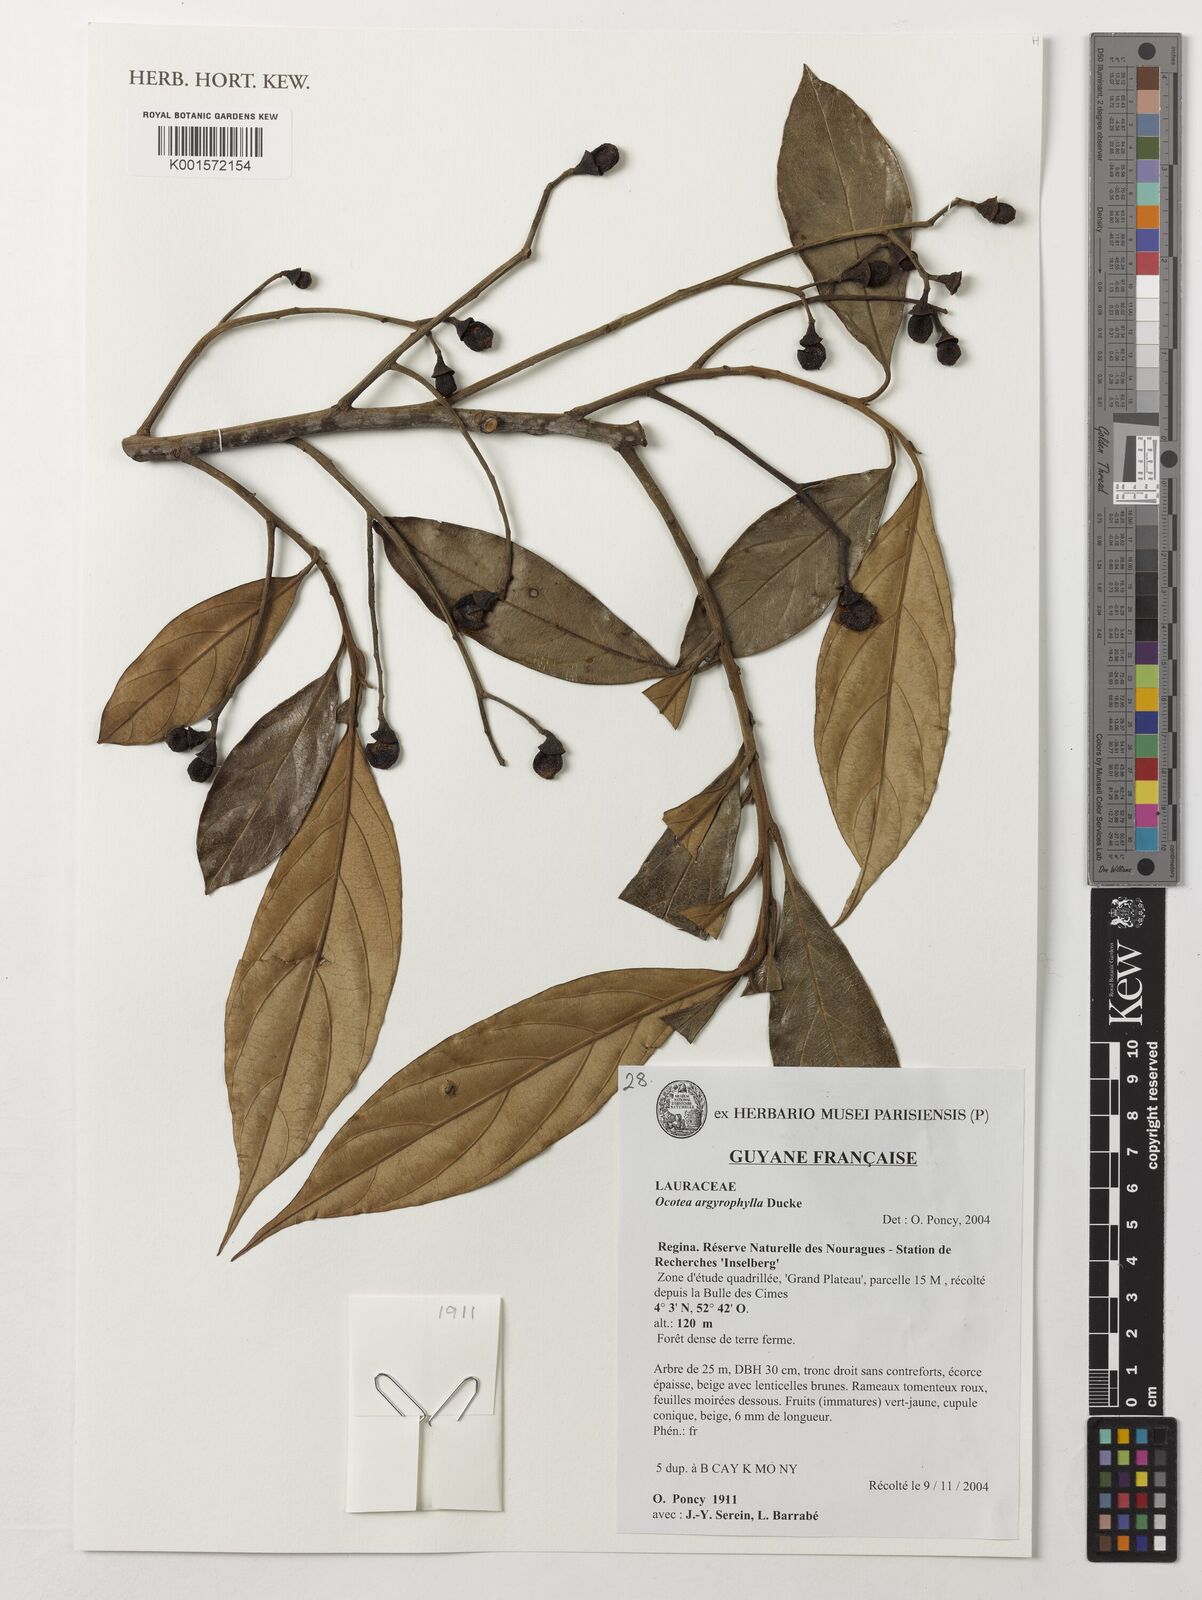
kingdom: Plantae
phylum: Tracheophyta
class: Magnoliopsida
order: Laurales
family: Lauraceae
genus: Ocotea
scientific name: Ocotea argyrophylla
